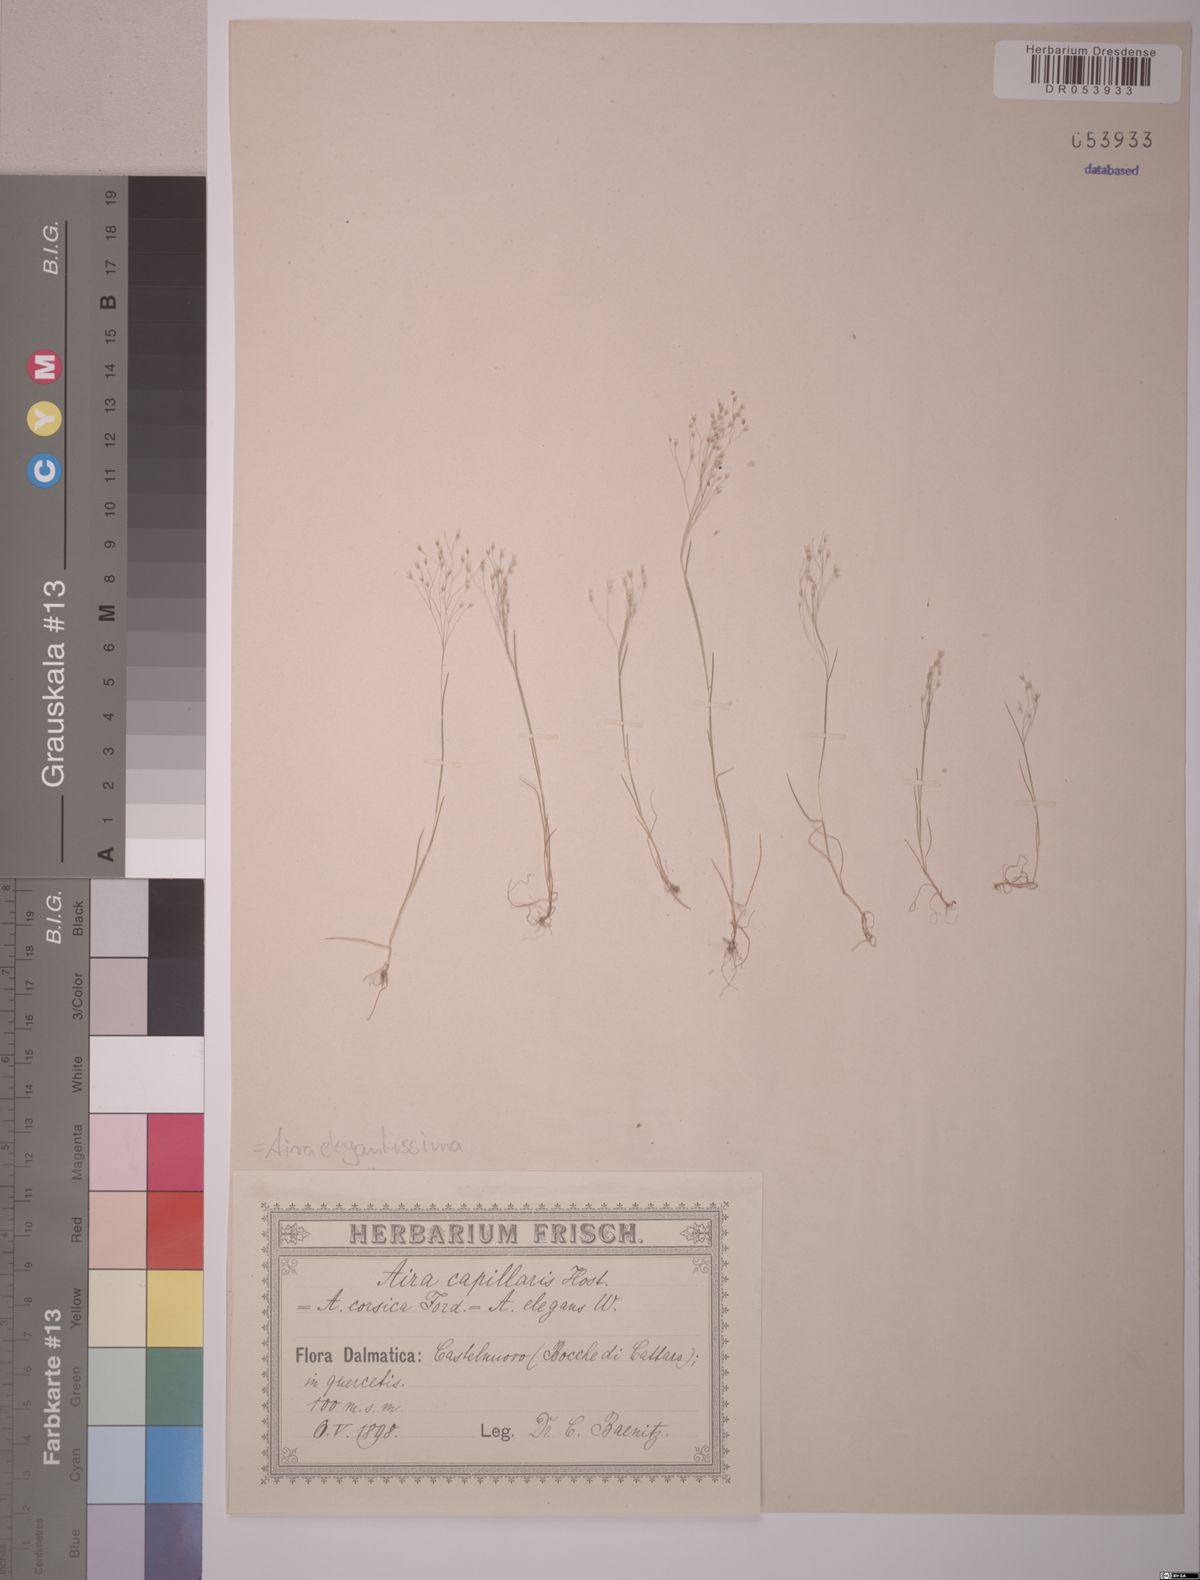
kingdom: Plantae
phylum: Tracheophyta
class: Liliopsida
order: Poales
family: Poaceae
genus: Aira
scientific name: Aira elegans
